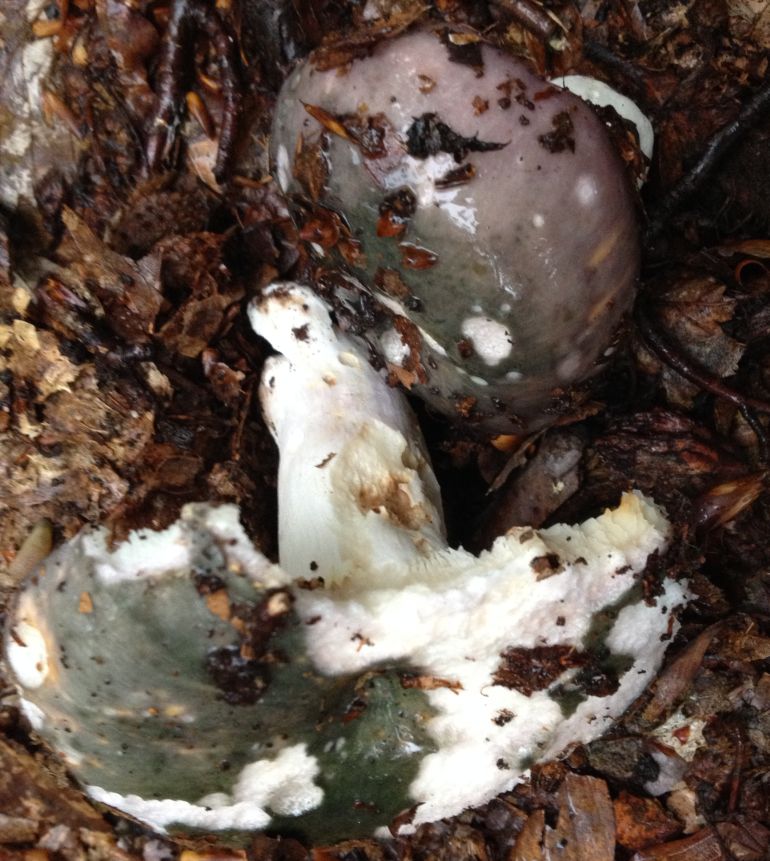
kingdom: Fungi
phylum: Basidiomycota
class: Agaricomycetes
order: Russulales
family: Russulaceae
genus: Russula
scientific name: Russula cyanoxantha
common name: broget skørhat
